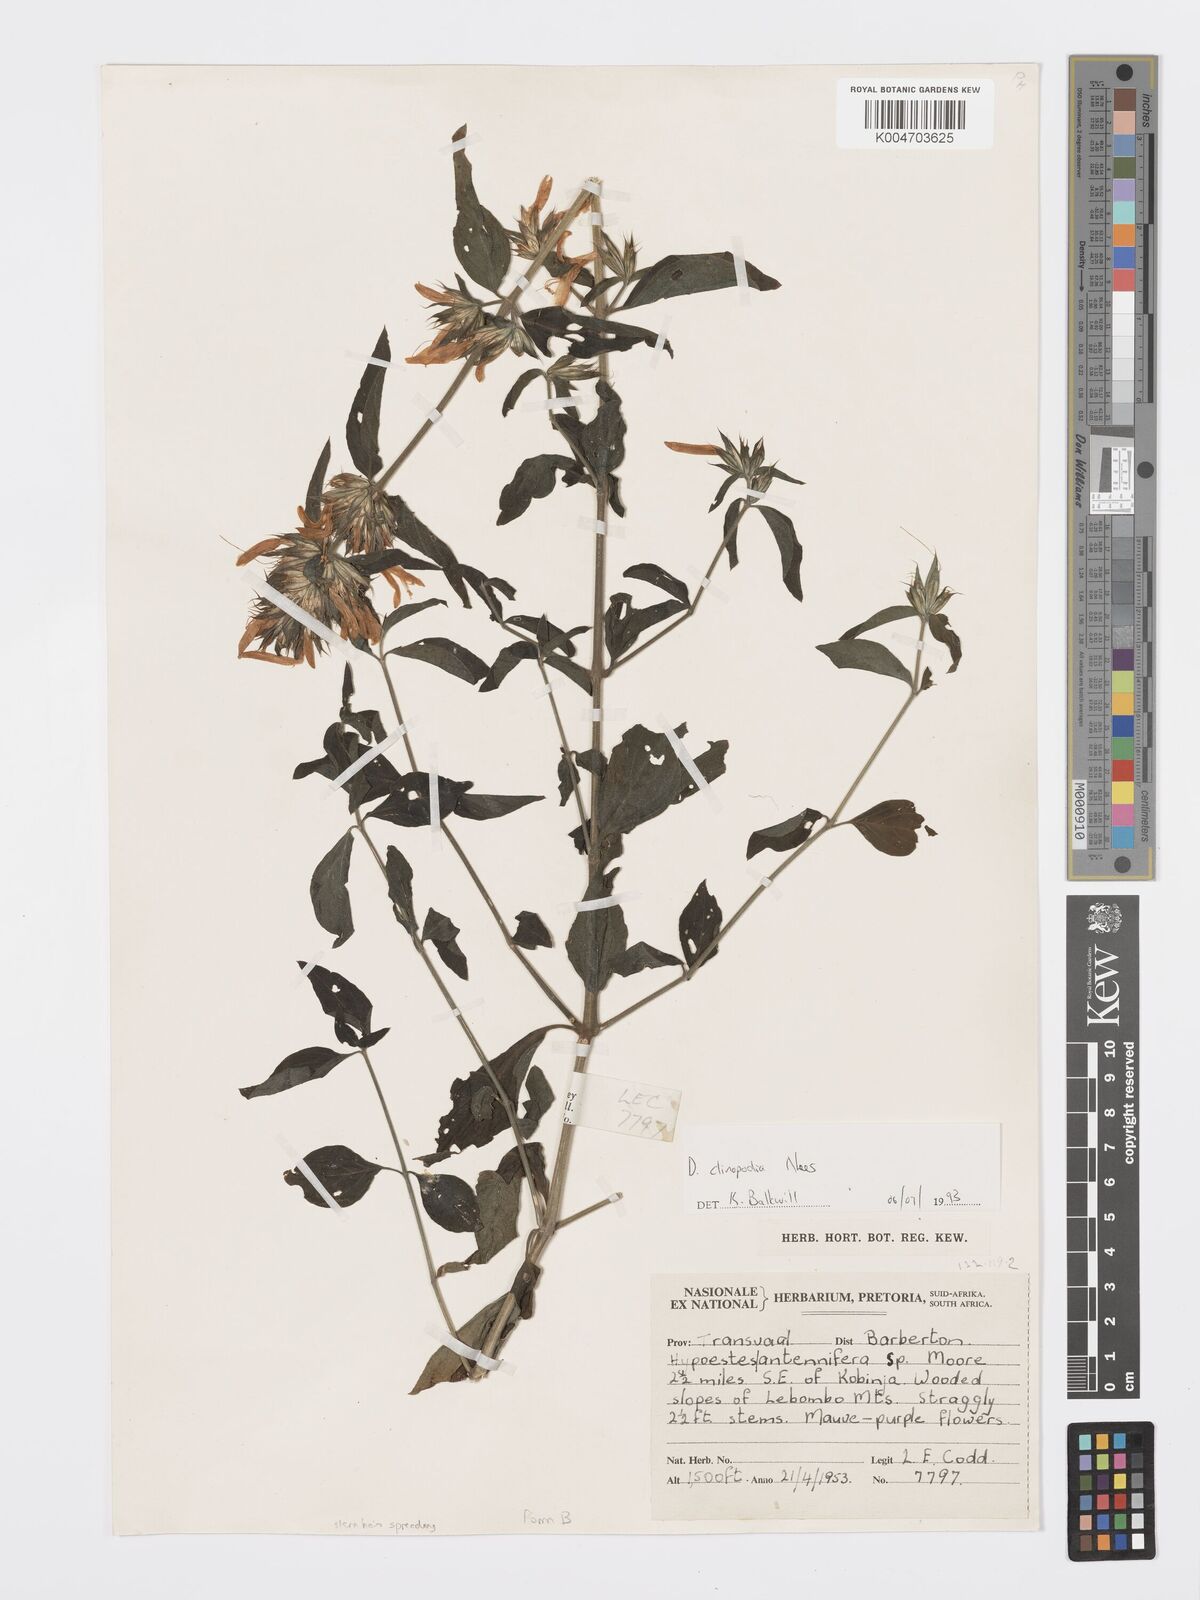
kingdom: Plantae
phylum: Tracheophyta
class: Magnoliopsida
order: Lamiales
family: Acanthaceae
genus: Dicliptera
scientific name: Dicliptera clinopodia
